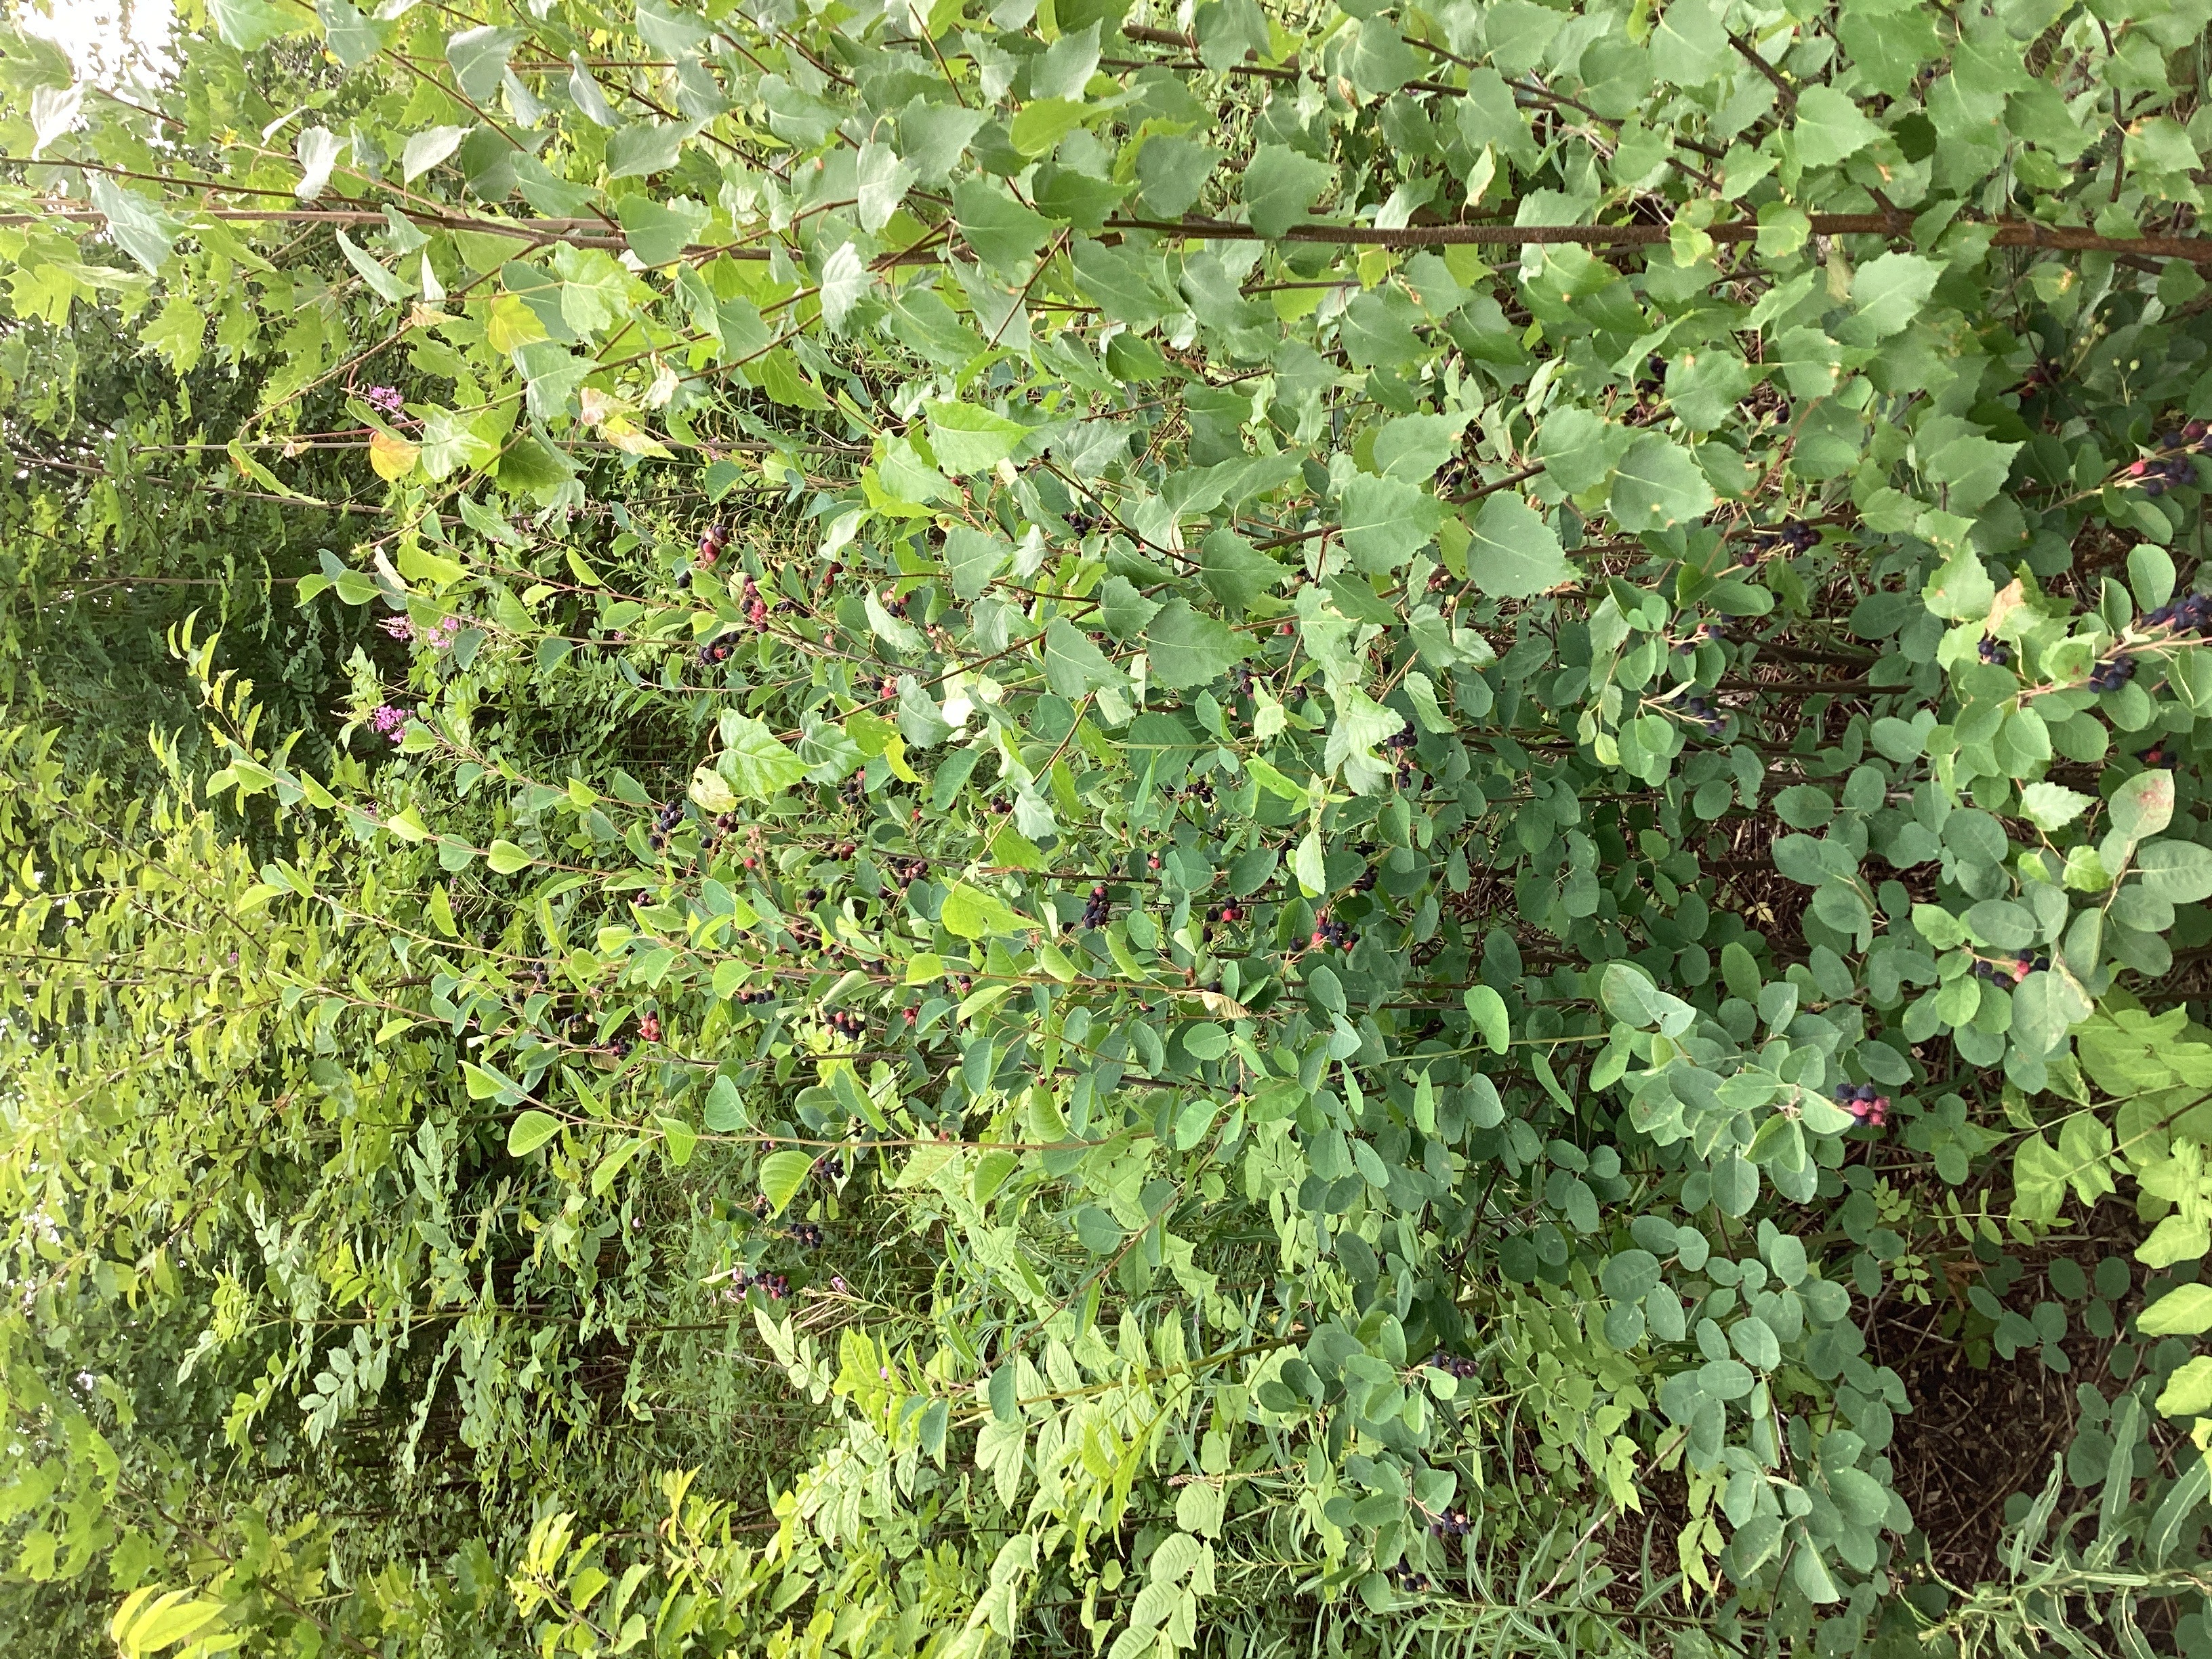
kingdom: Plantae
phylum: Tracheophyta
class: Magnoliopsida
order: Rosales
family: Rosaceae
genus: Amelanchier
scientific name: Amelanchier alnifolia
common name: taggblåhegg
